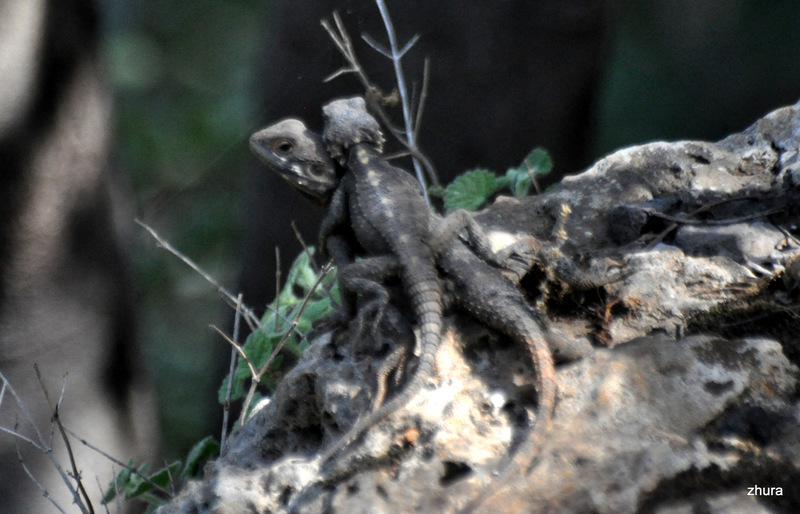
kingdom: Animalia
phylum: Chordata
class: Squamata
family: Agamidae
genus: Stellagama
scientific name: Stellagama stellio
